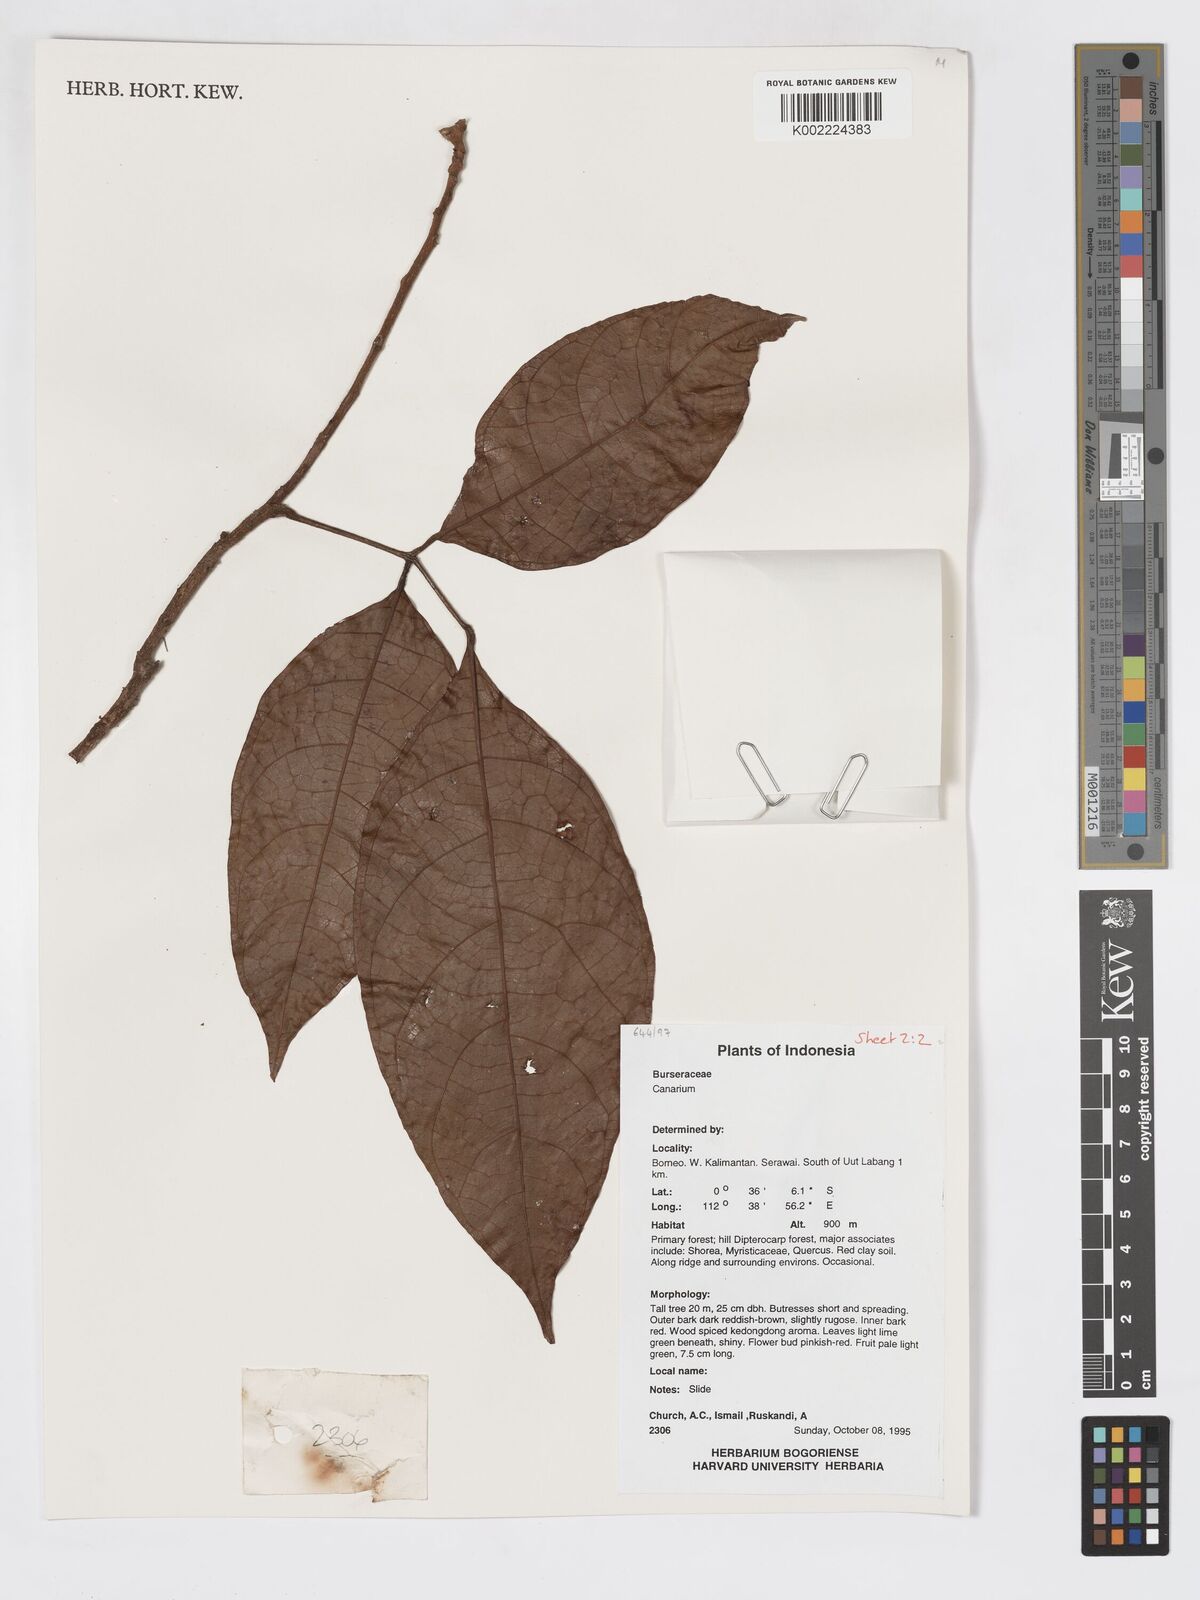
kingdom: Plantae
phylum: Tracheophyta
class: Magnoliopsida
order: Sapindales
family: Burseraceae
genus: Canarium
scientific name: Canarium
